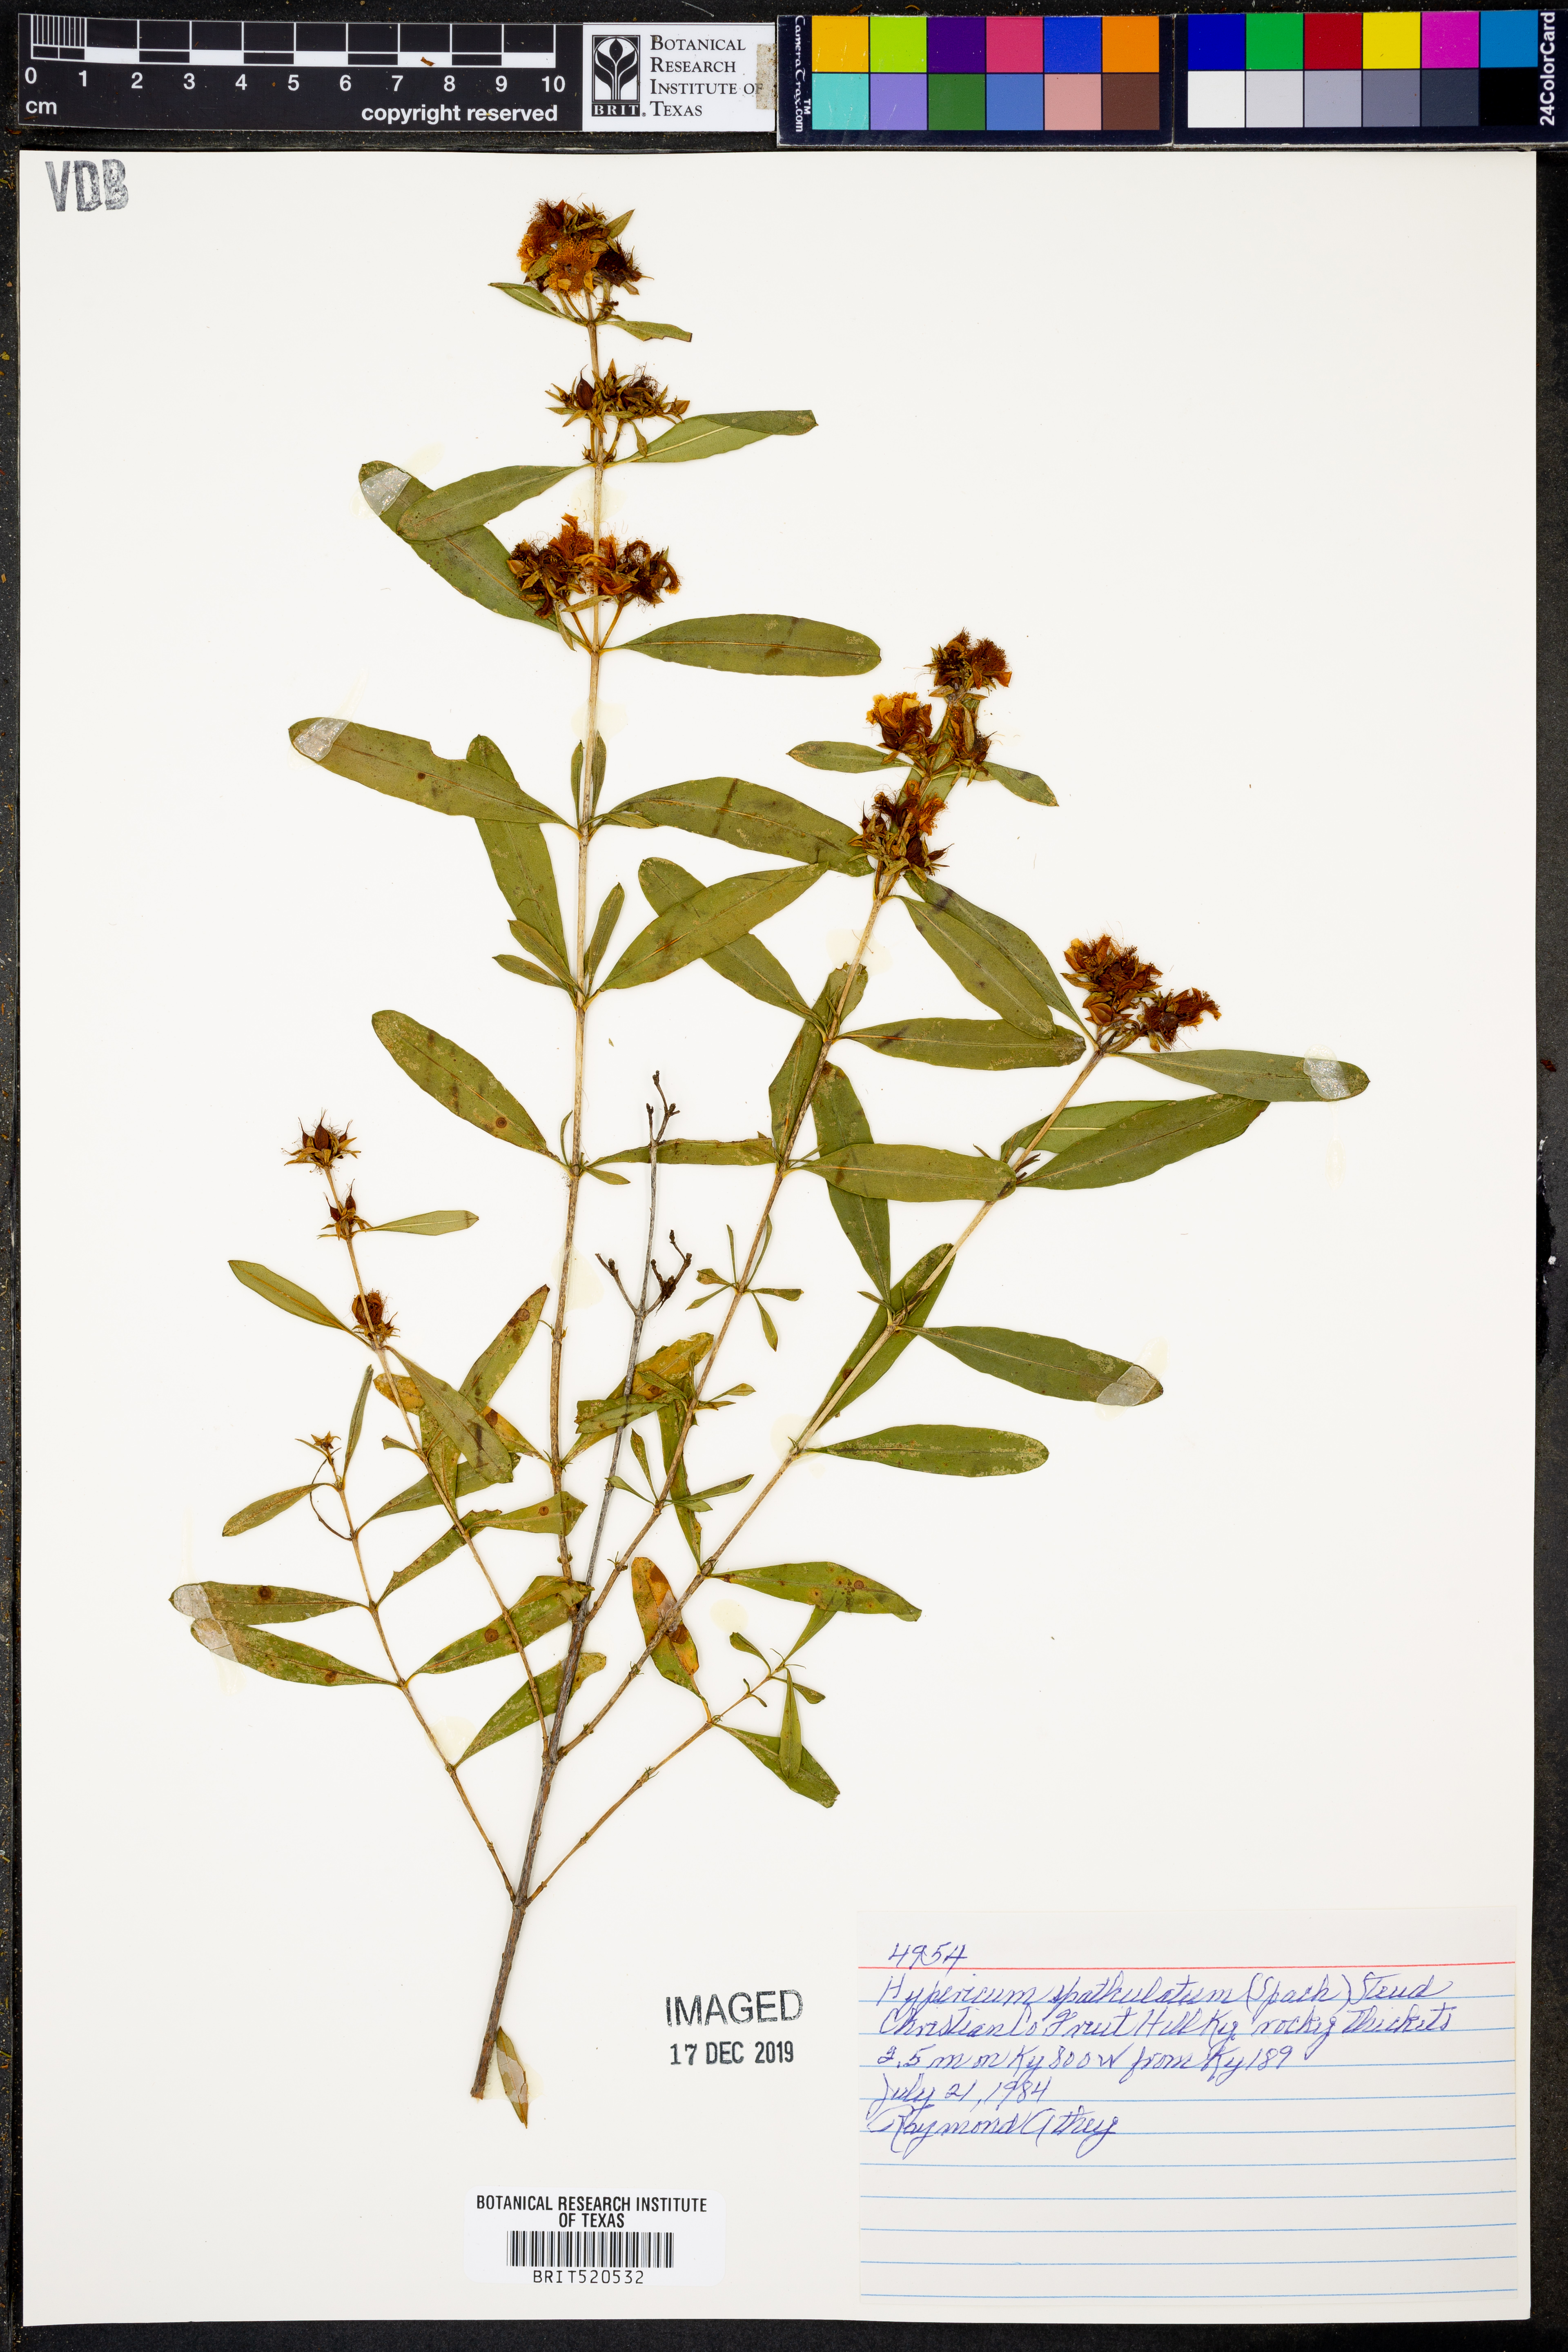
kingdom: Plantae
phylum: Tracheophyta
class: Magnoliopsida
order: Malpighiales
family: Hypericaceae
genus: Hypericum
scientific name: Hypericum
